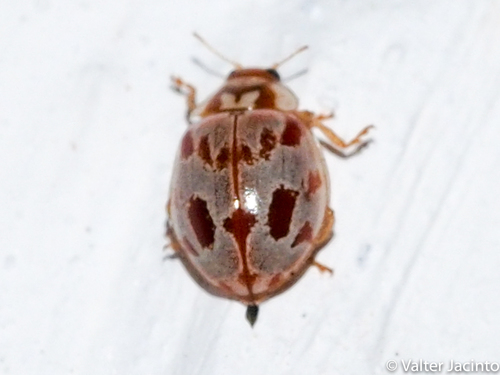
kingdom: Animalia
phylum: Arthropoda
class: Insecta
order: Coleoptera
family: Coccinellidae
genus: Myrrha
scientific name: Myrrha octodecimguttata
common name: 18-spot ladybird
